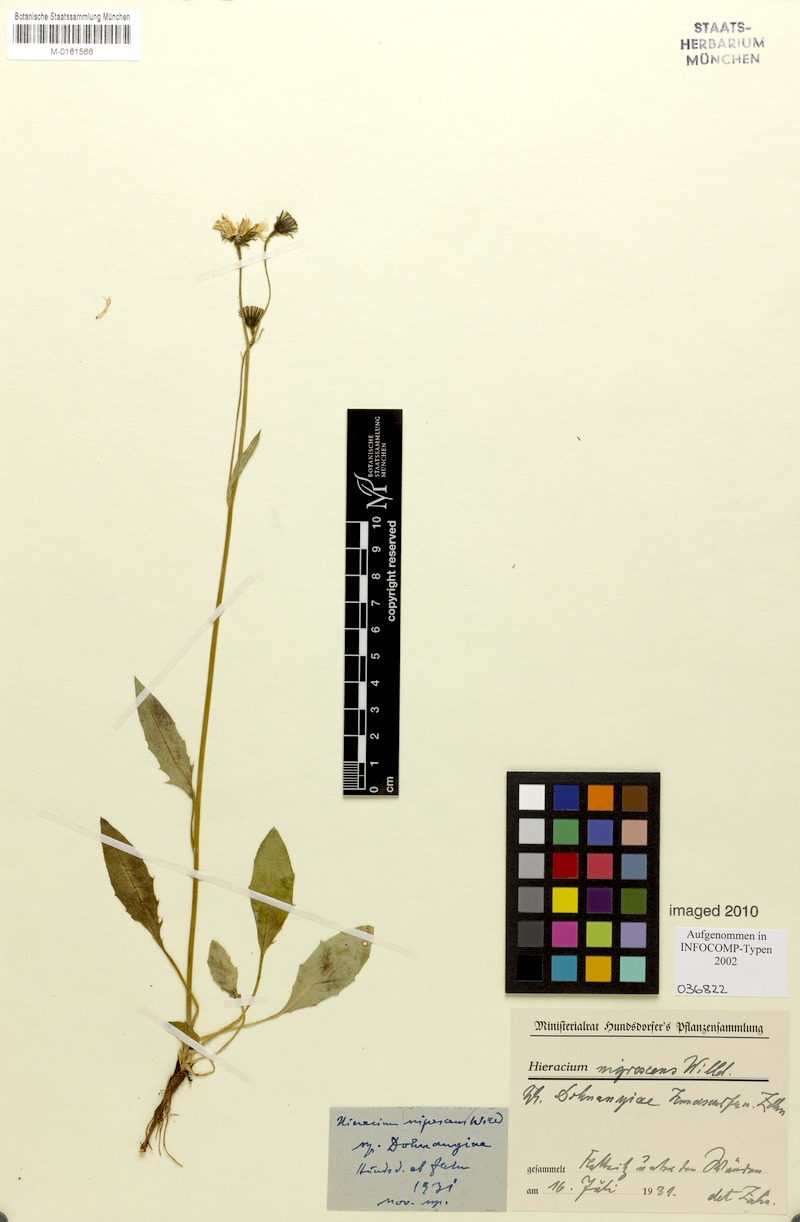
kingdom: Plantae
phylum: Tracheophyta
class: Magnoliopsida
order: Asterales
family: Asteraceae
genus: Hieracium
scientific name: Hieracium nigrescens
